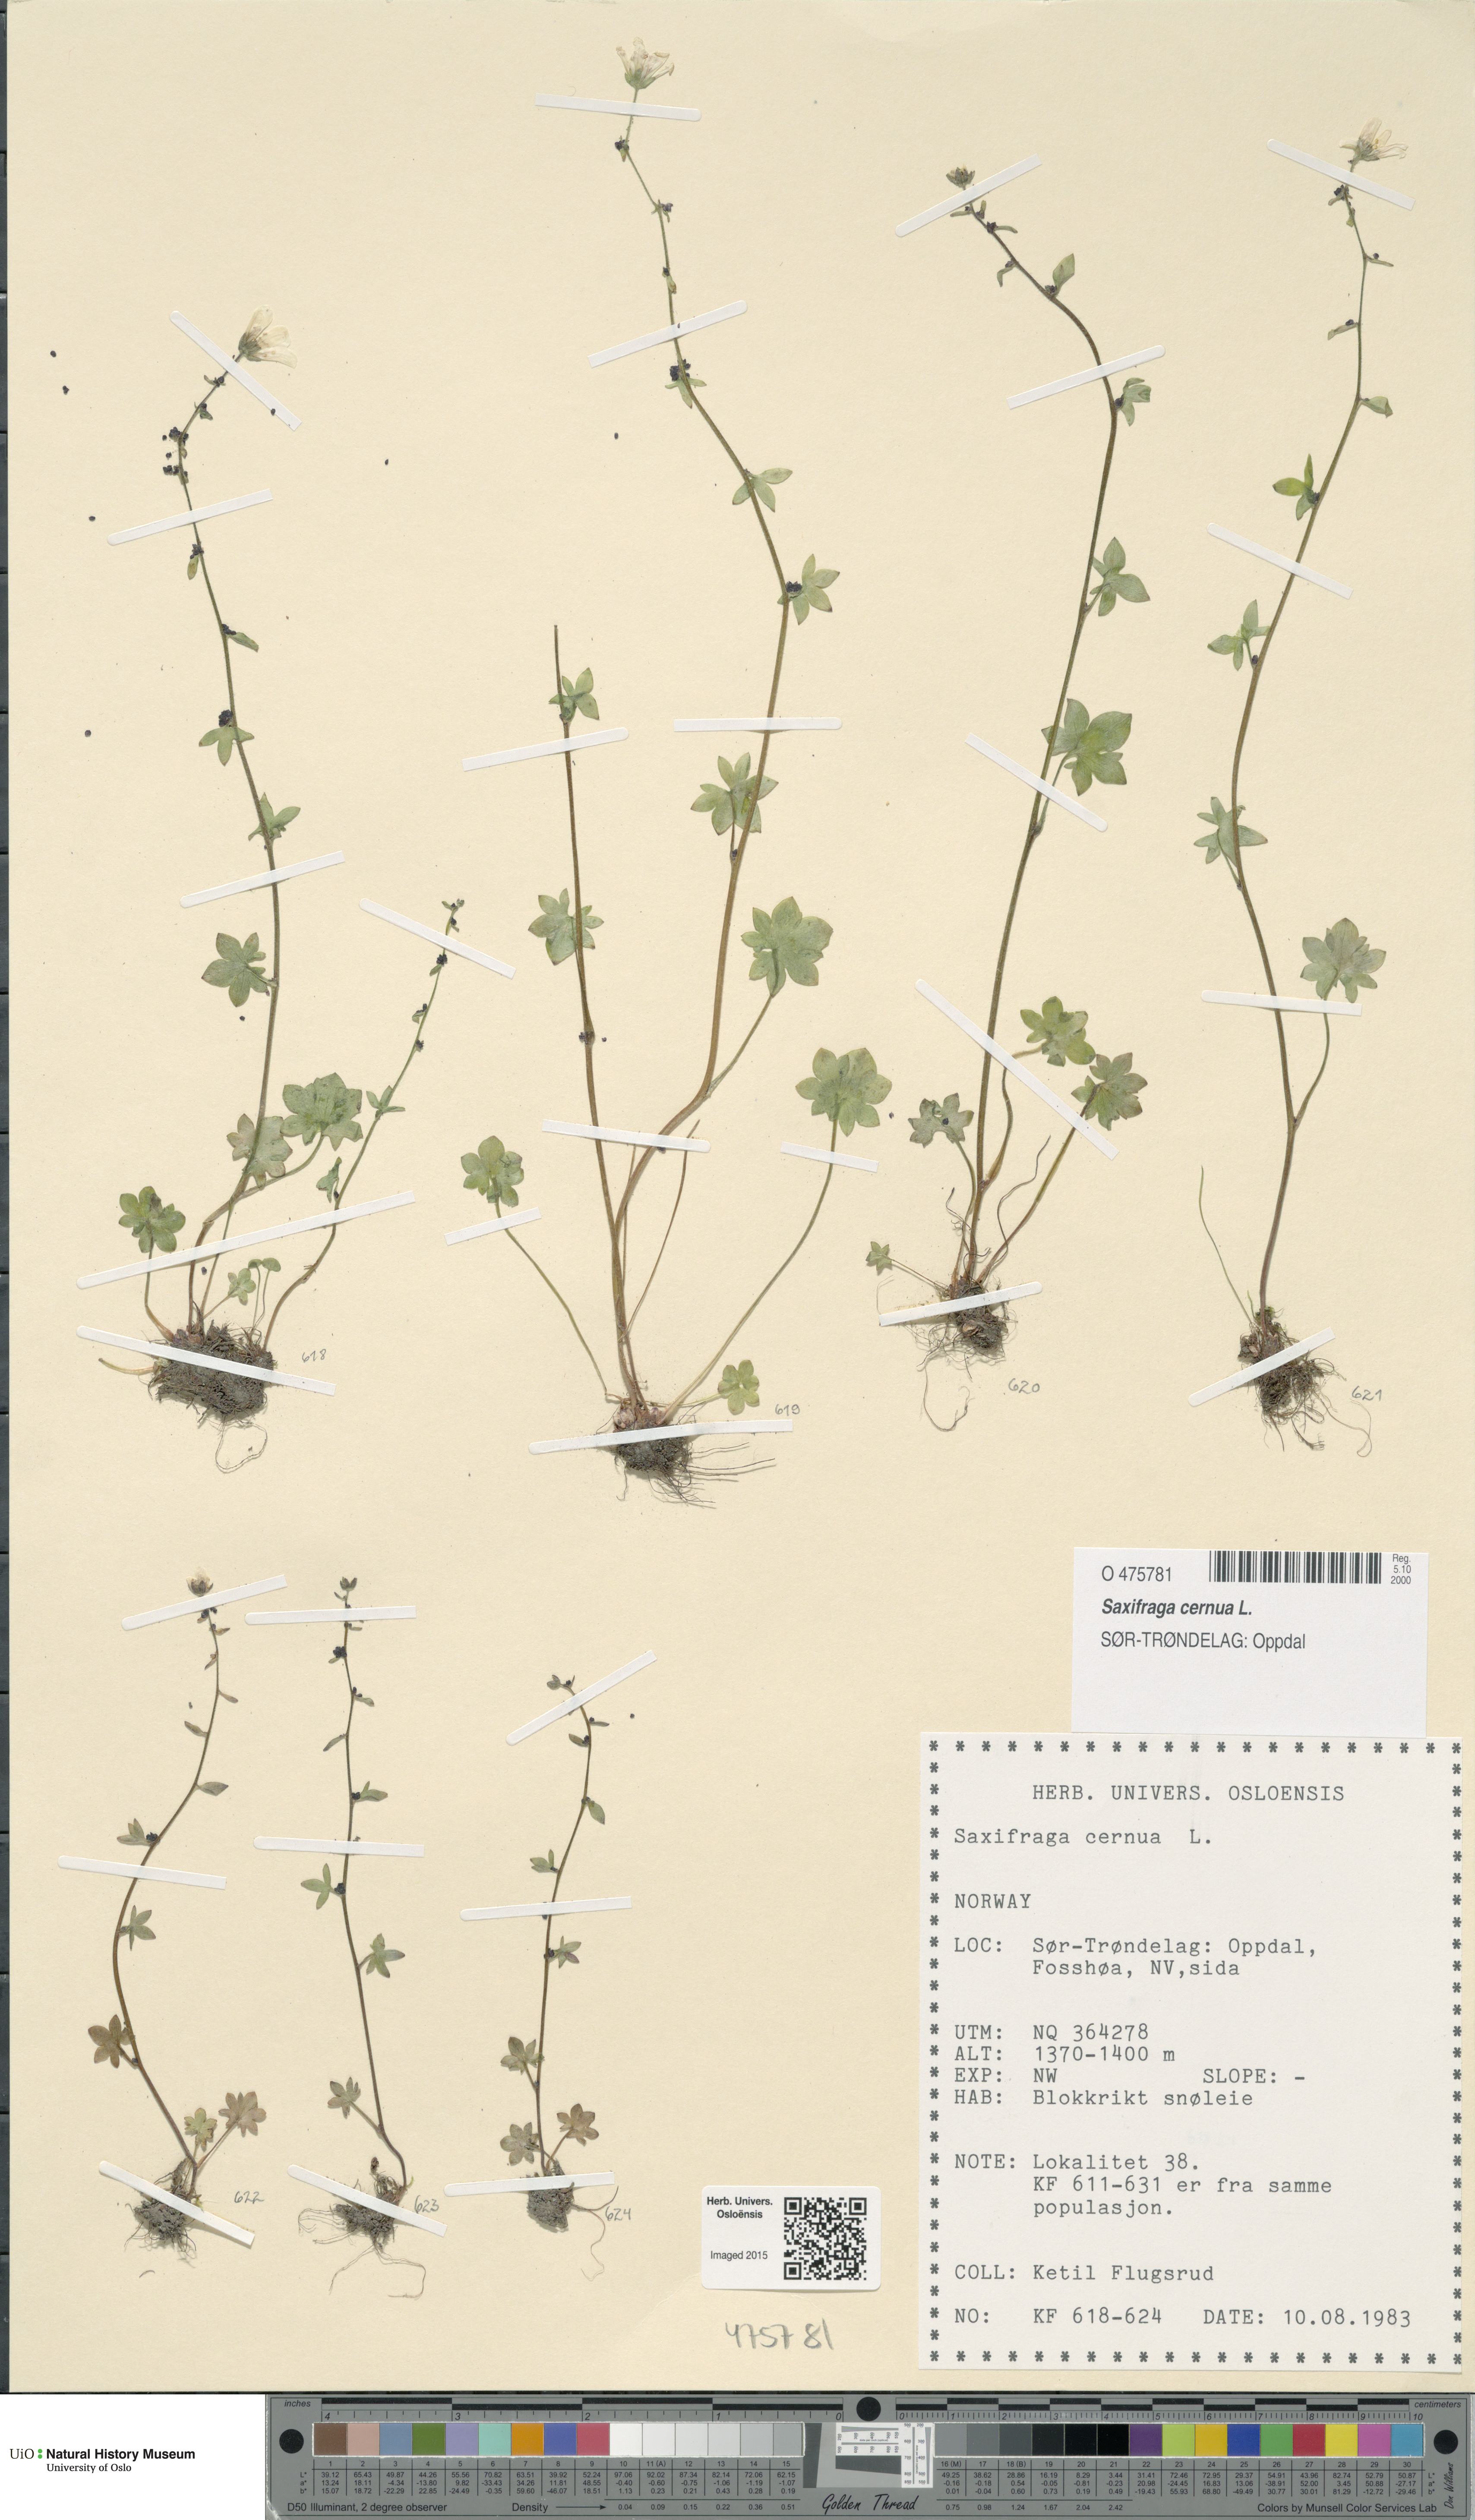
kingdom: Plantae
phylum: Tracheophyta
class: Magnoliopsida
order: Saxifragales
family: Saxifragaceae
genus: Saxifraga
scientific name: Saxifraga cernua
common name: Drooping saxifrage
